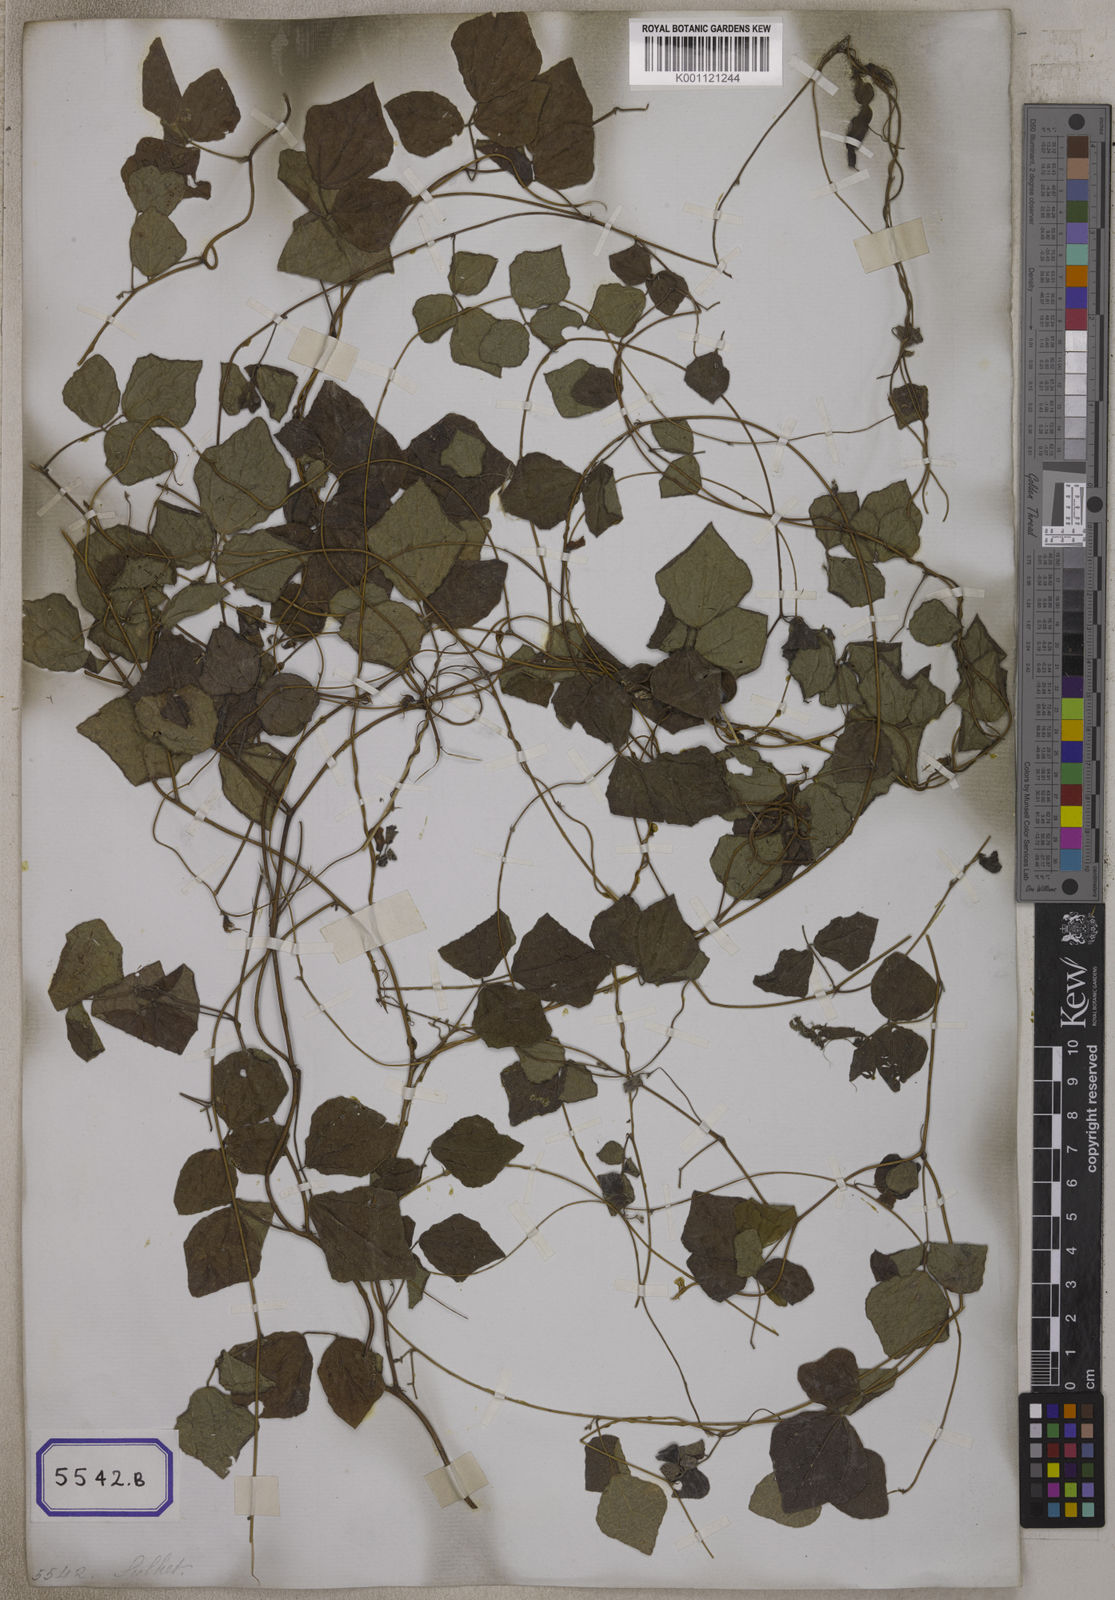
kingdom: Plantae
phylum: Tracheophyta
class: Magnoliopsida
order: Fabales
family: Fabaceae
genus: Dunbaria
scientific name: Dunbaria punctata
